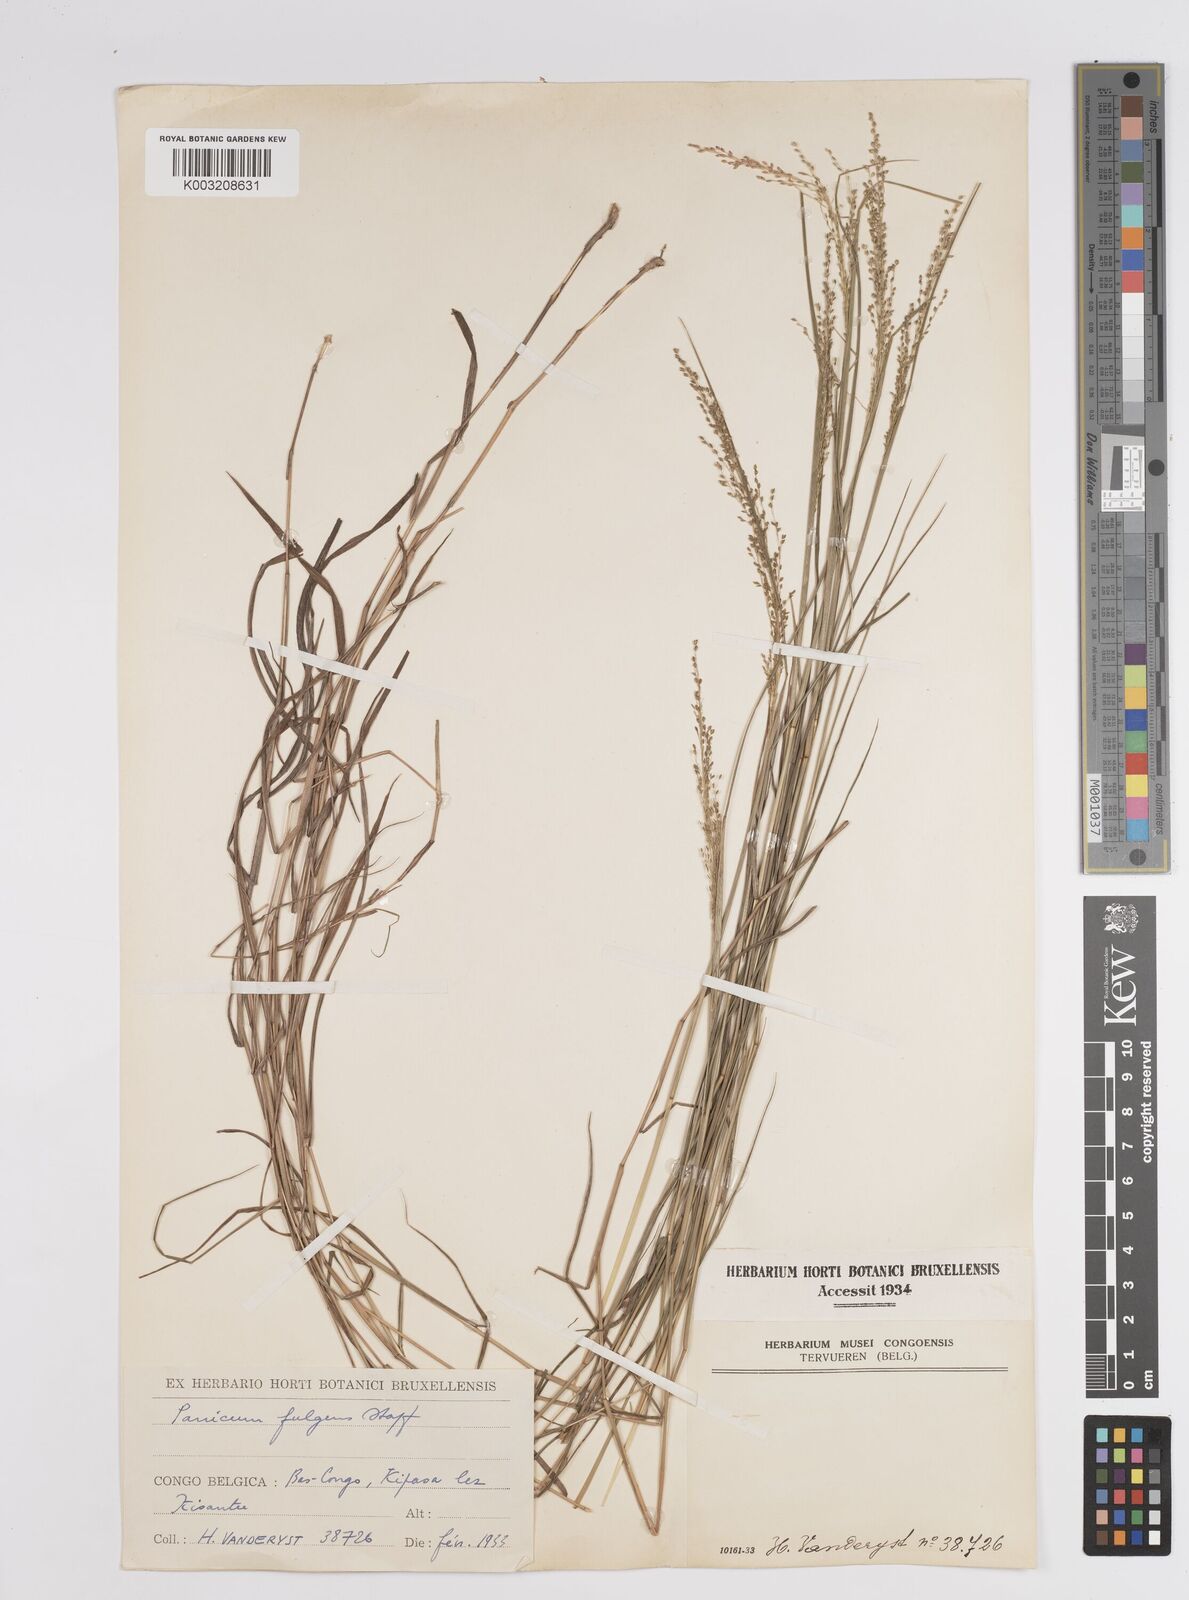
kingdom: Plantae
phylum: Tracheophyta
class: Liliopsida
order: Poales
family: Poaceae
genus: Trichanthecium
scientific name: Trichanthecium nervatum
